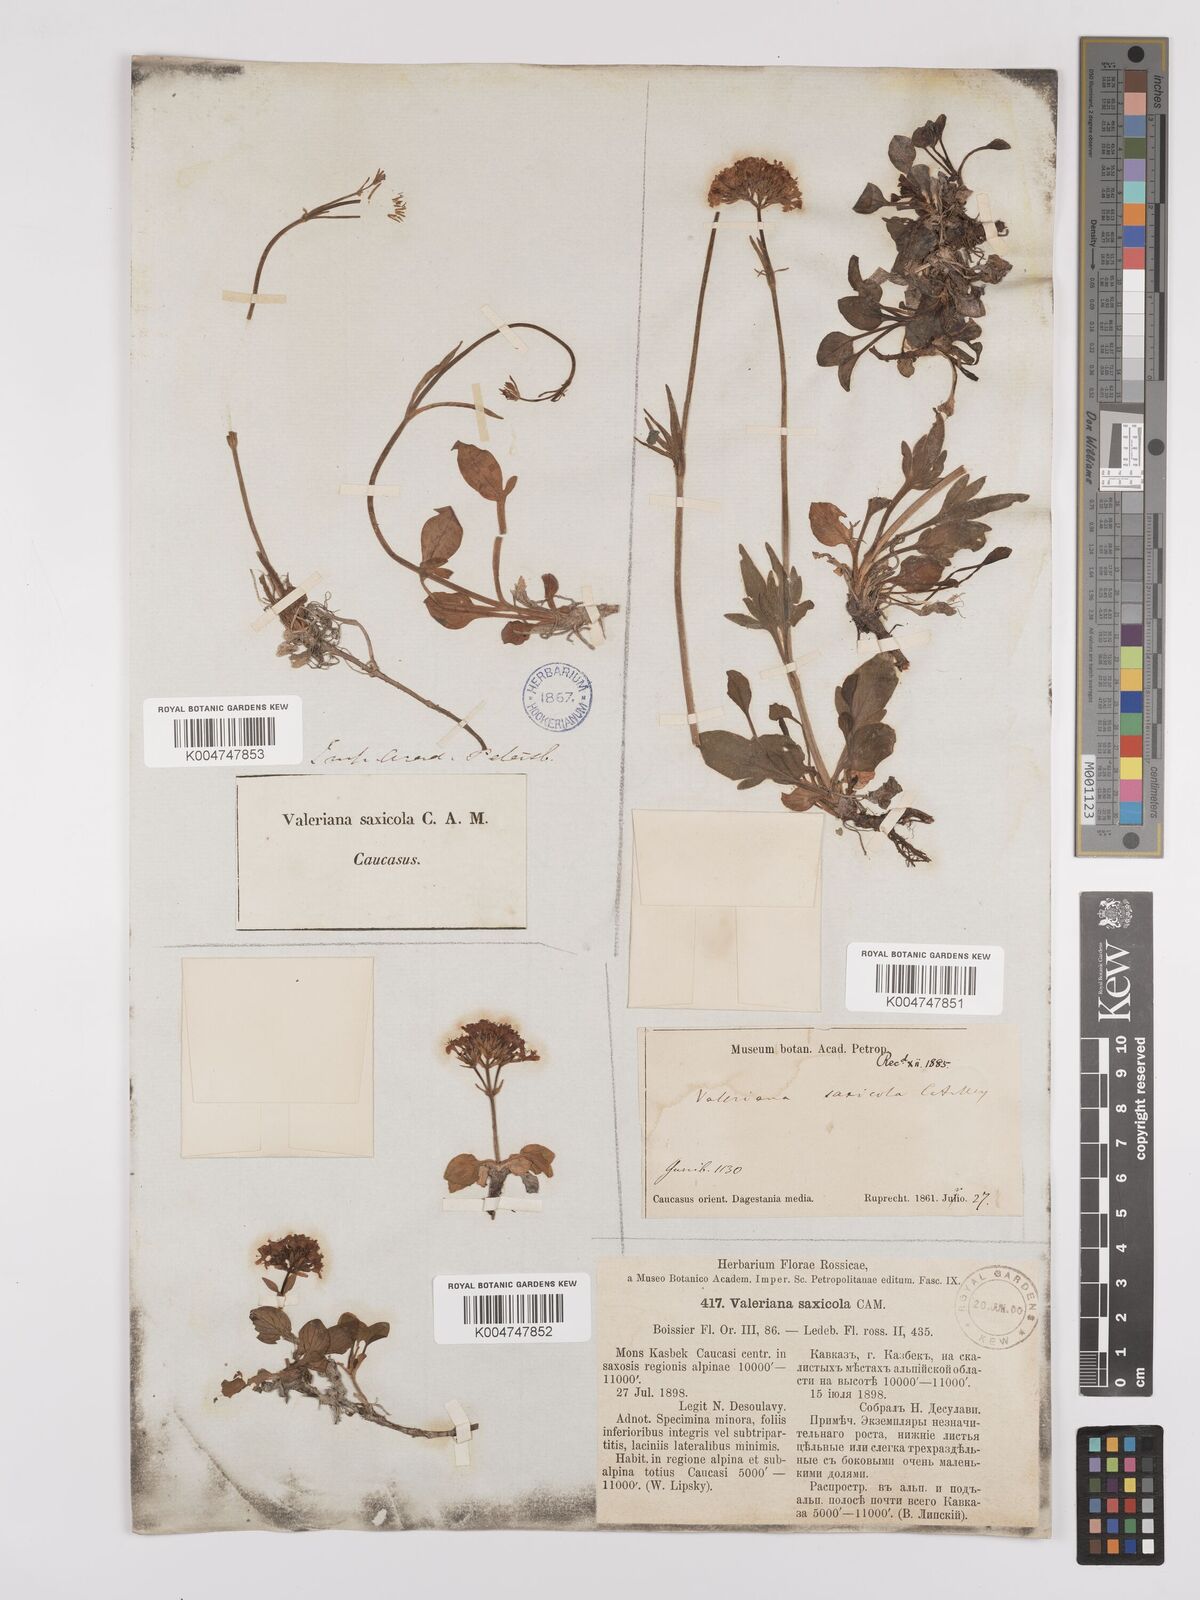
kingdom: Plantae
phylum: Tracheophyta
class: Magnoliopsida
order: Dipsacales
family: Caprifoliaceae
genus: Valeriana
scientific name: Valeriana saxicola
